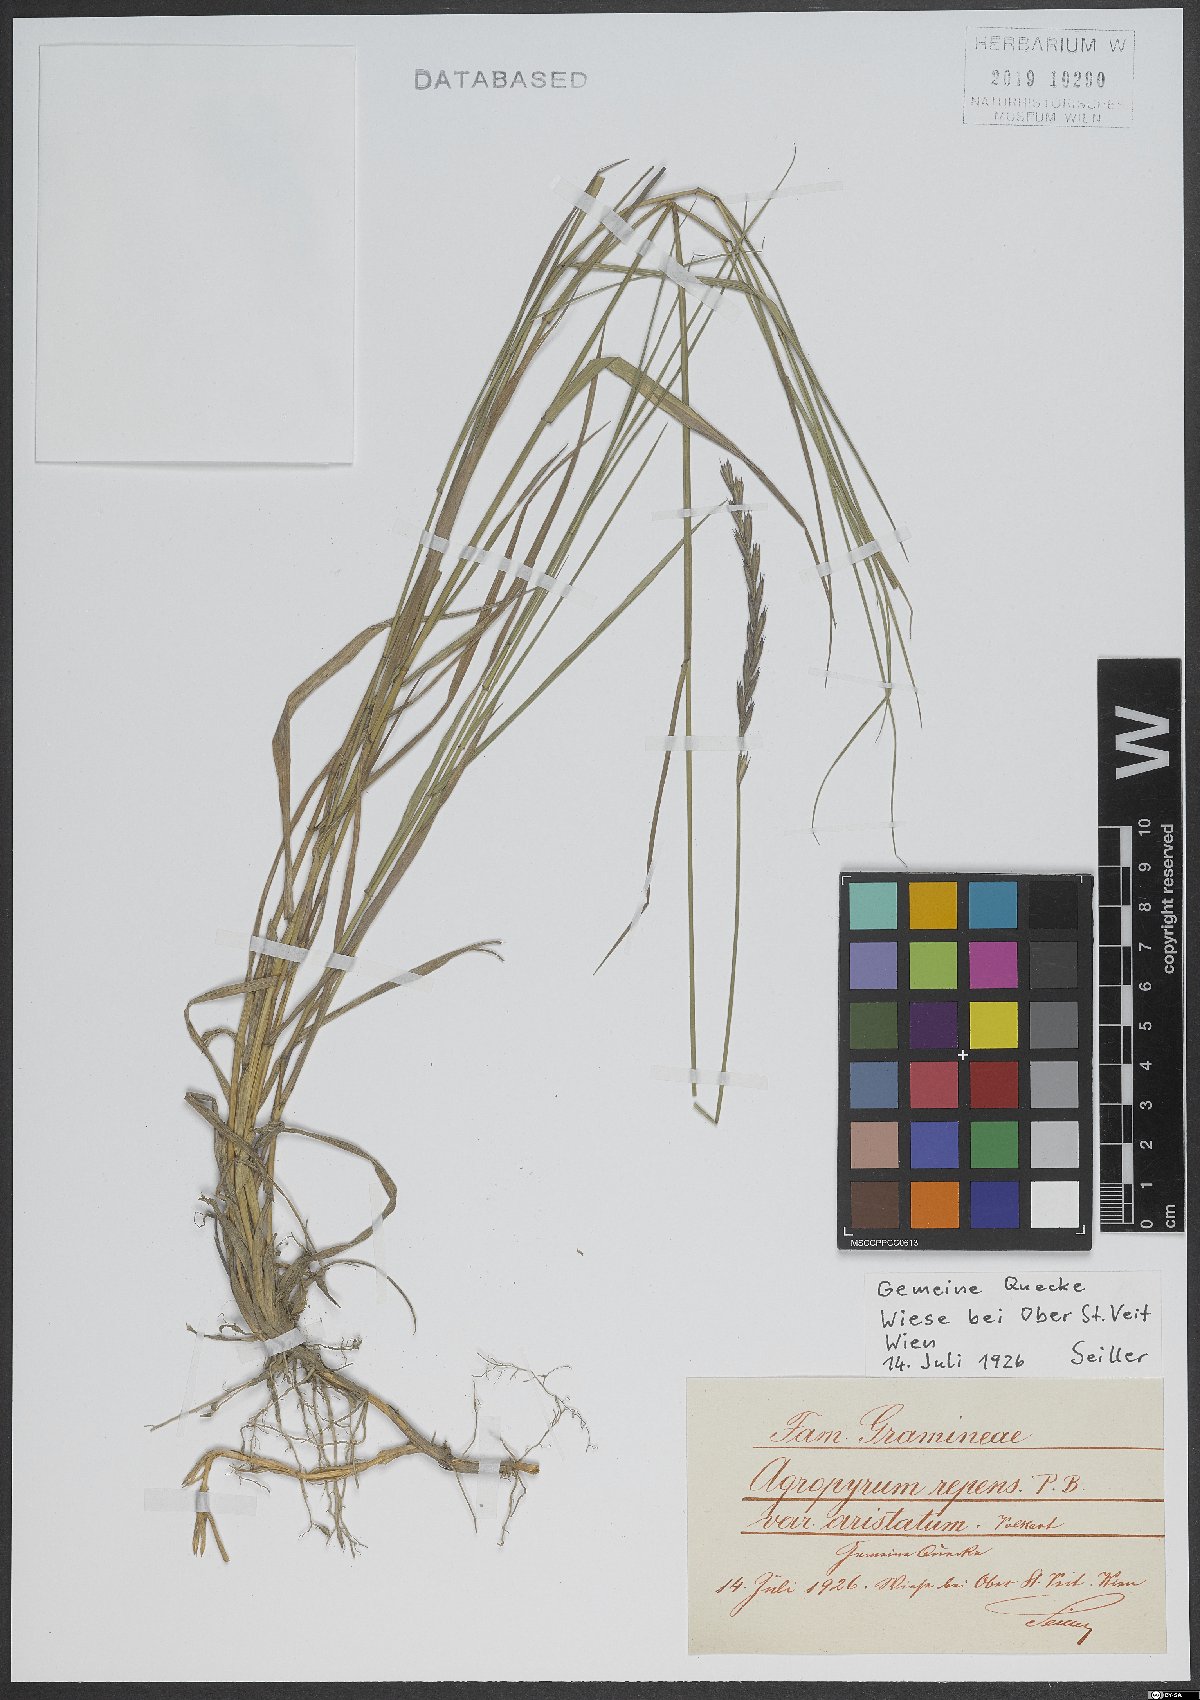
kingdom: Plantae
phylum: Tracheophyta
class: Liliopsida
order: Poales
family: Poaceae
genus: Elymus
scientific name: Elymus repens
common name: Quackgrass
